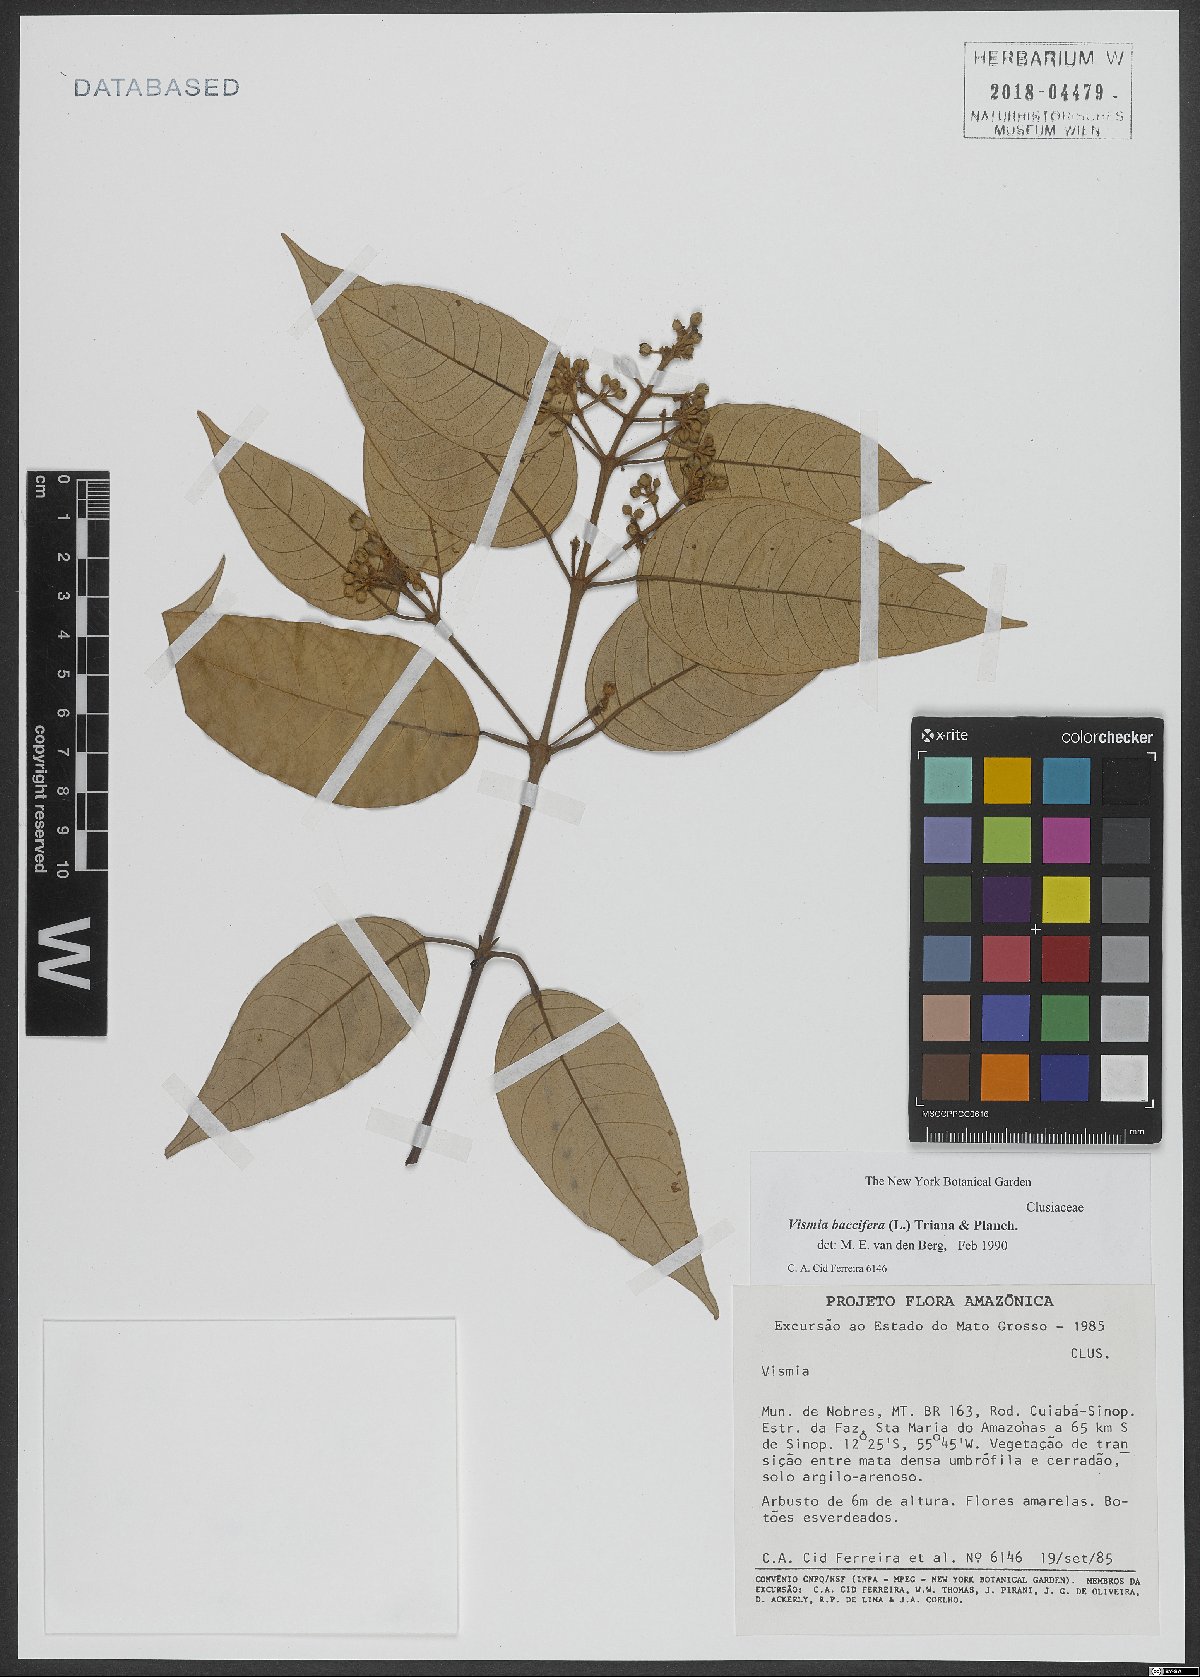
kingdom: Plantae
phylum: Tracheophyta
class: Magnoliopsida
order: Malpighiales
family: Hypericaceae
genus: Vismia
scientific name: Vismia baccifera
